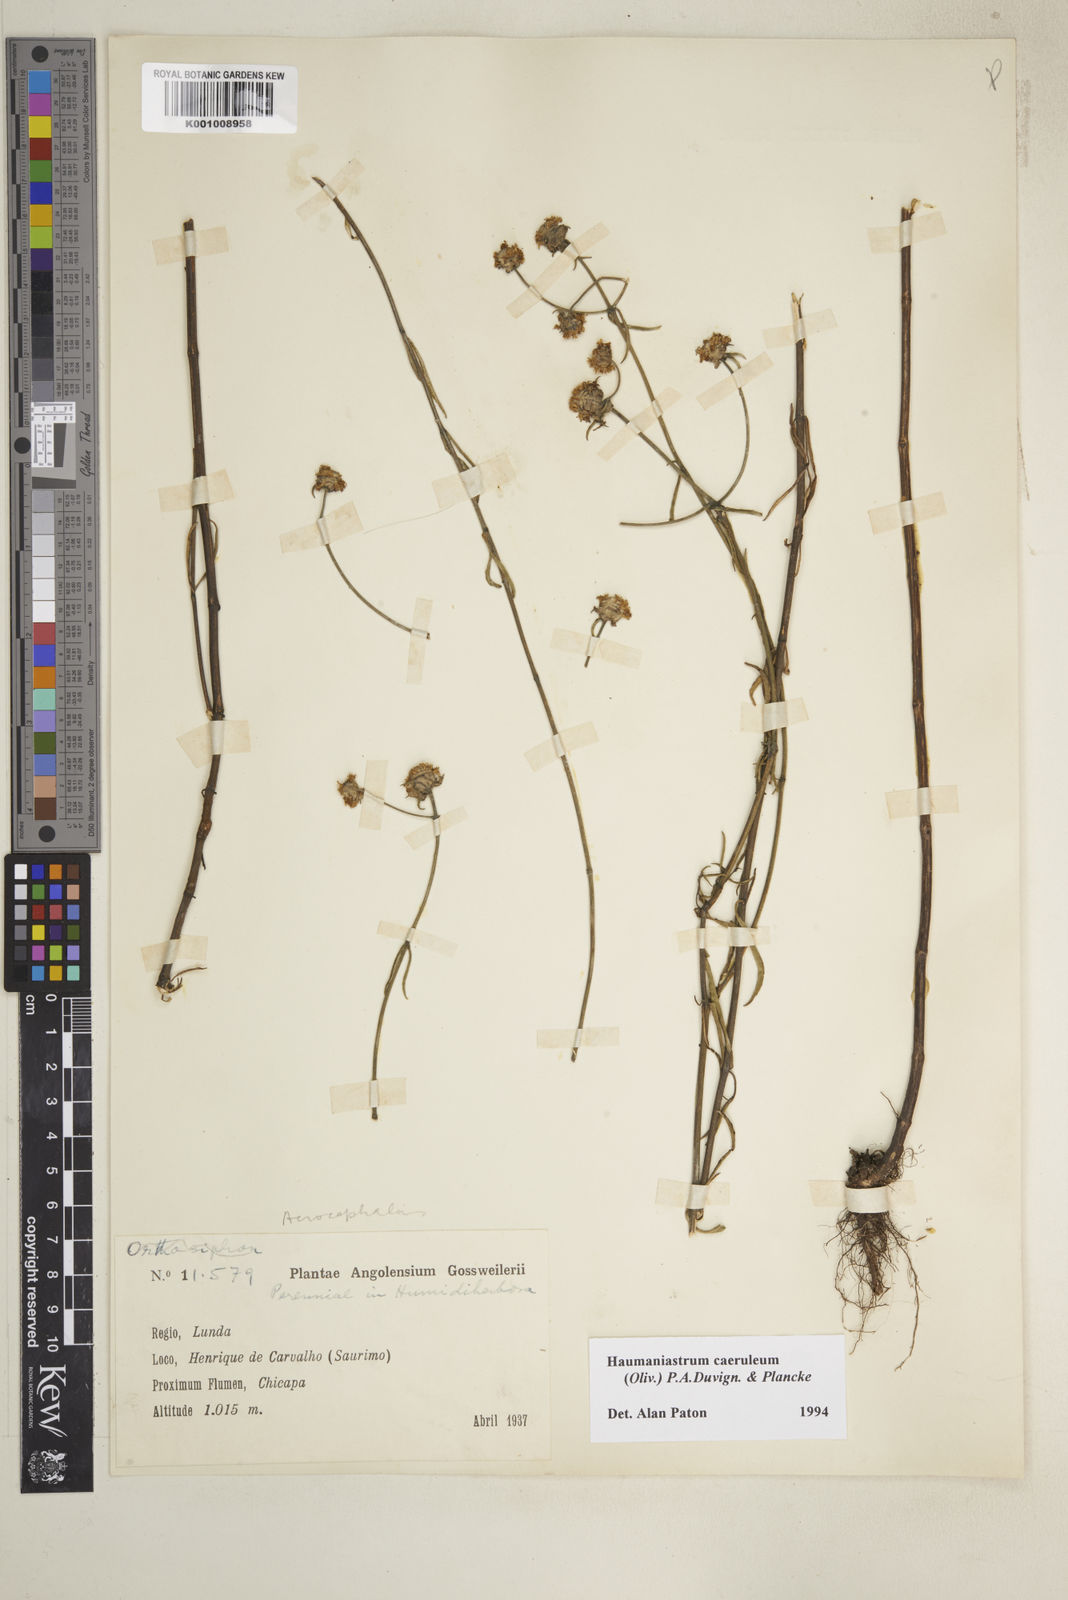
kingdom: Plantae
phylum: Tracheophyta
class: Magnoliopsida
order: Lamiales
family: Lamiaceae
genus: Haumaniastrum
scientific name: Haumaniastrum caeruleum
